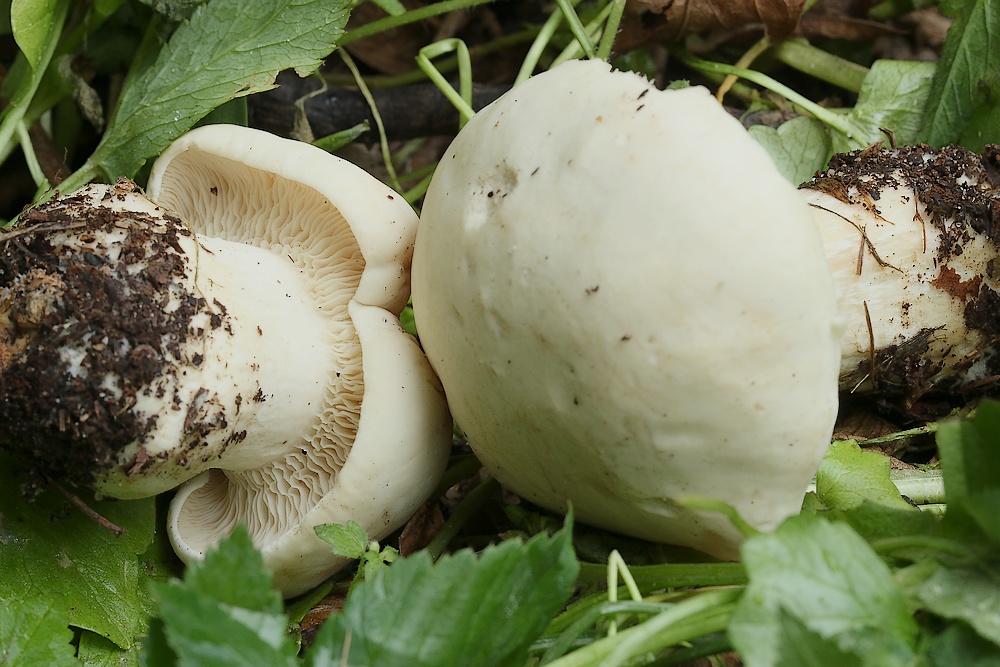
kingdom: Fungi
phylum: Basidiomycota
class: Agaricomycetes
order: Agaricales
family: Lyophyllaceae
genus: Calocybe
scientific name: Calocybe gambosa
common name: vårmusseron
